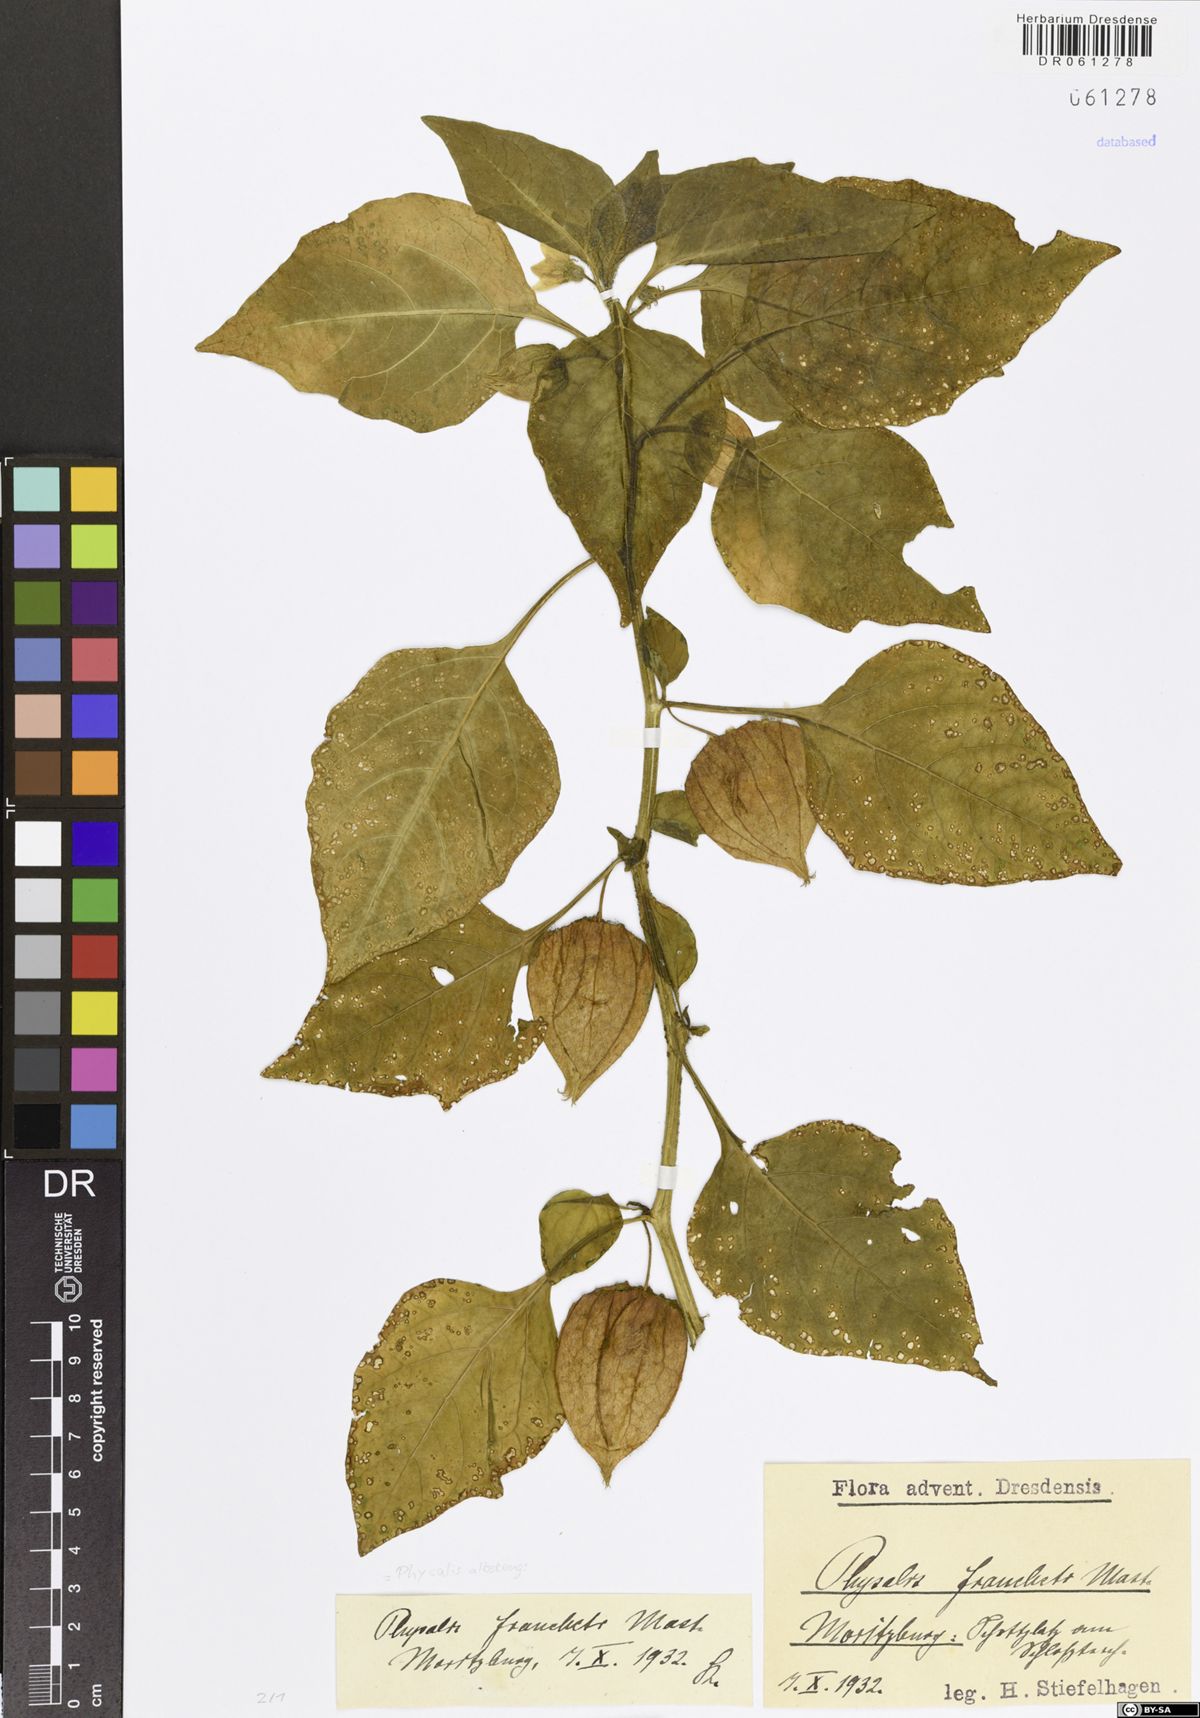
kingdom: Plantae
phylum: Tracheophyta
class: Magnoliopsida
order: Solanales
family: Solanaceae
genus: Alkekengi
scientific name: Alkekengi officinarum
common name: Japanese-lantern
